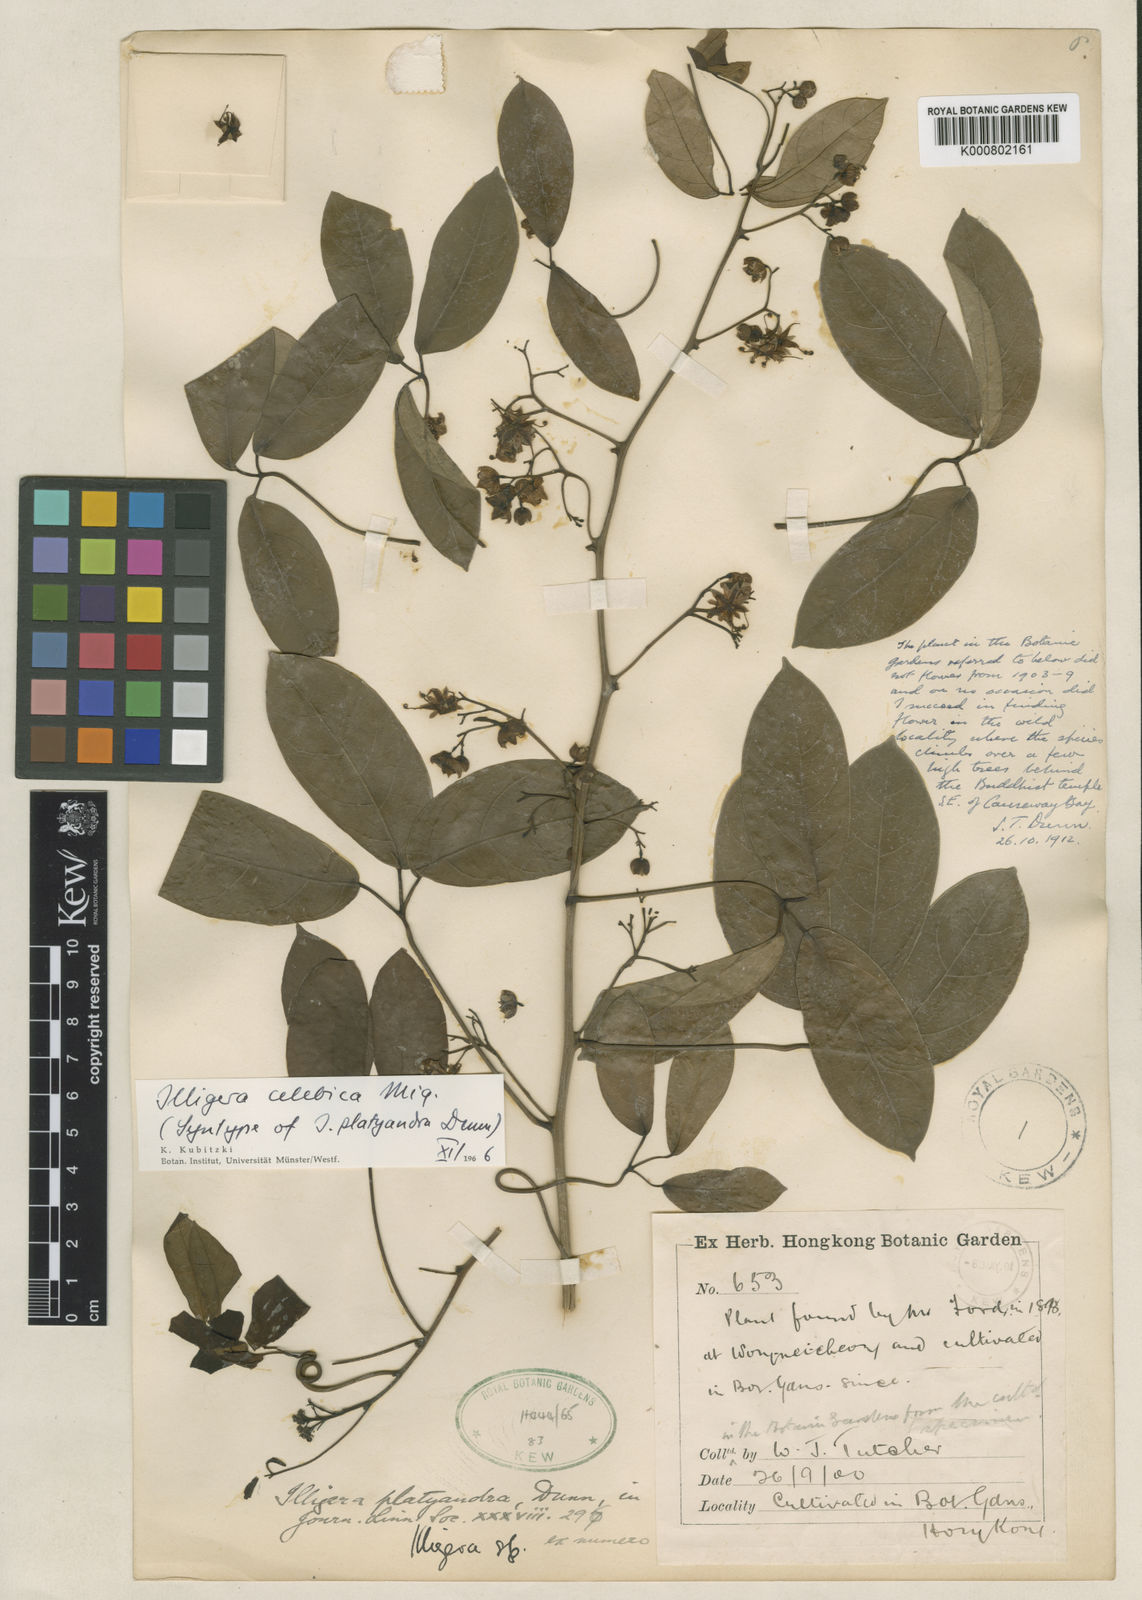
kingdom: Plantae
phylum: Tracheophyta
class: Magnoliopsida
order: Laurales
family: Hernandiaceae
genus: Illigera
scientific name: Illigera celebica
